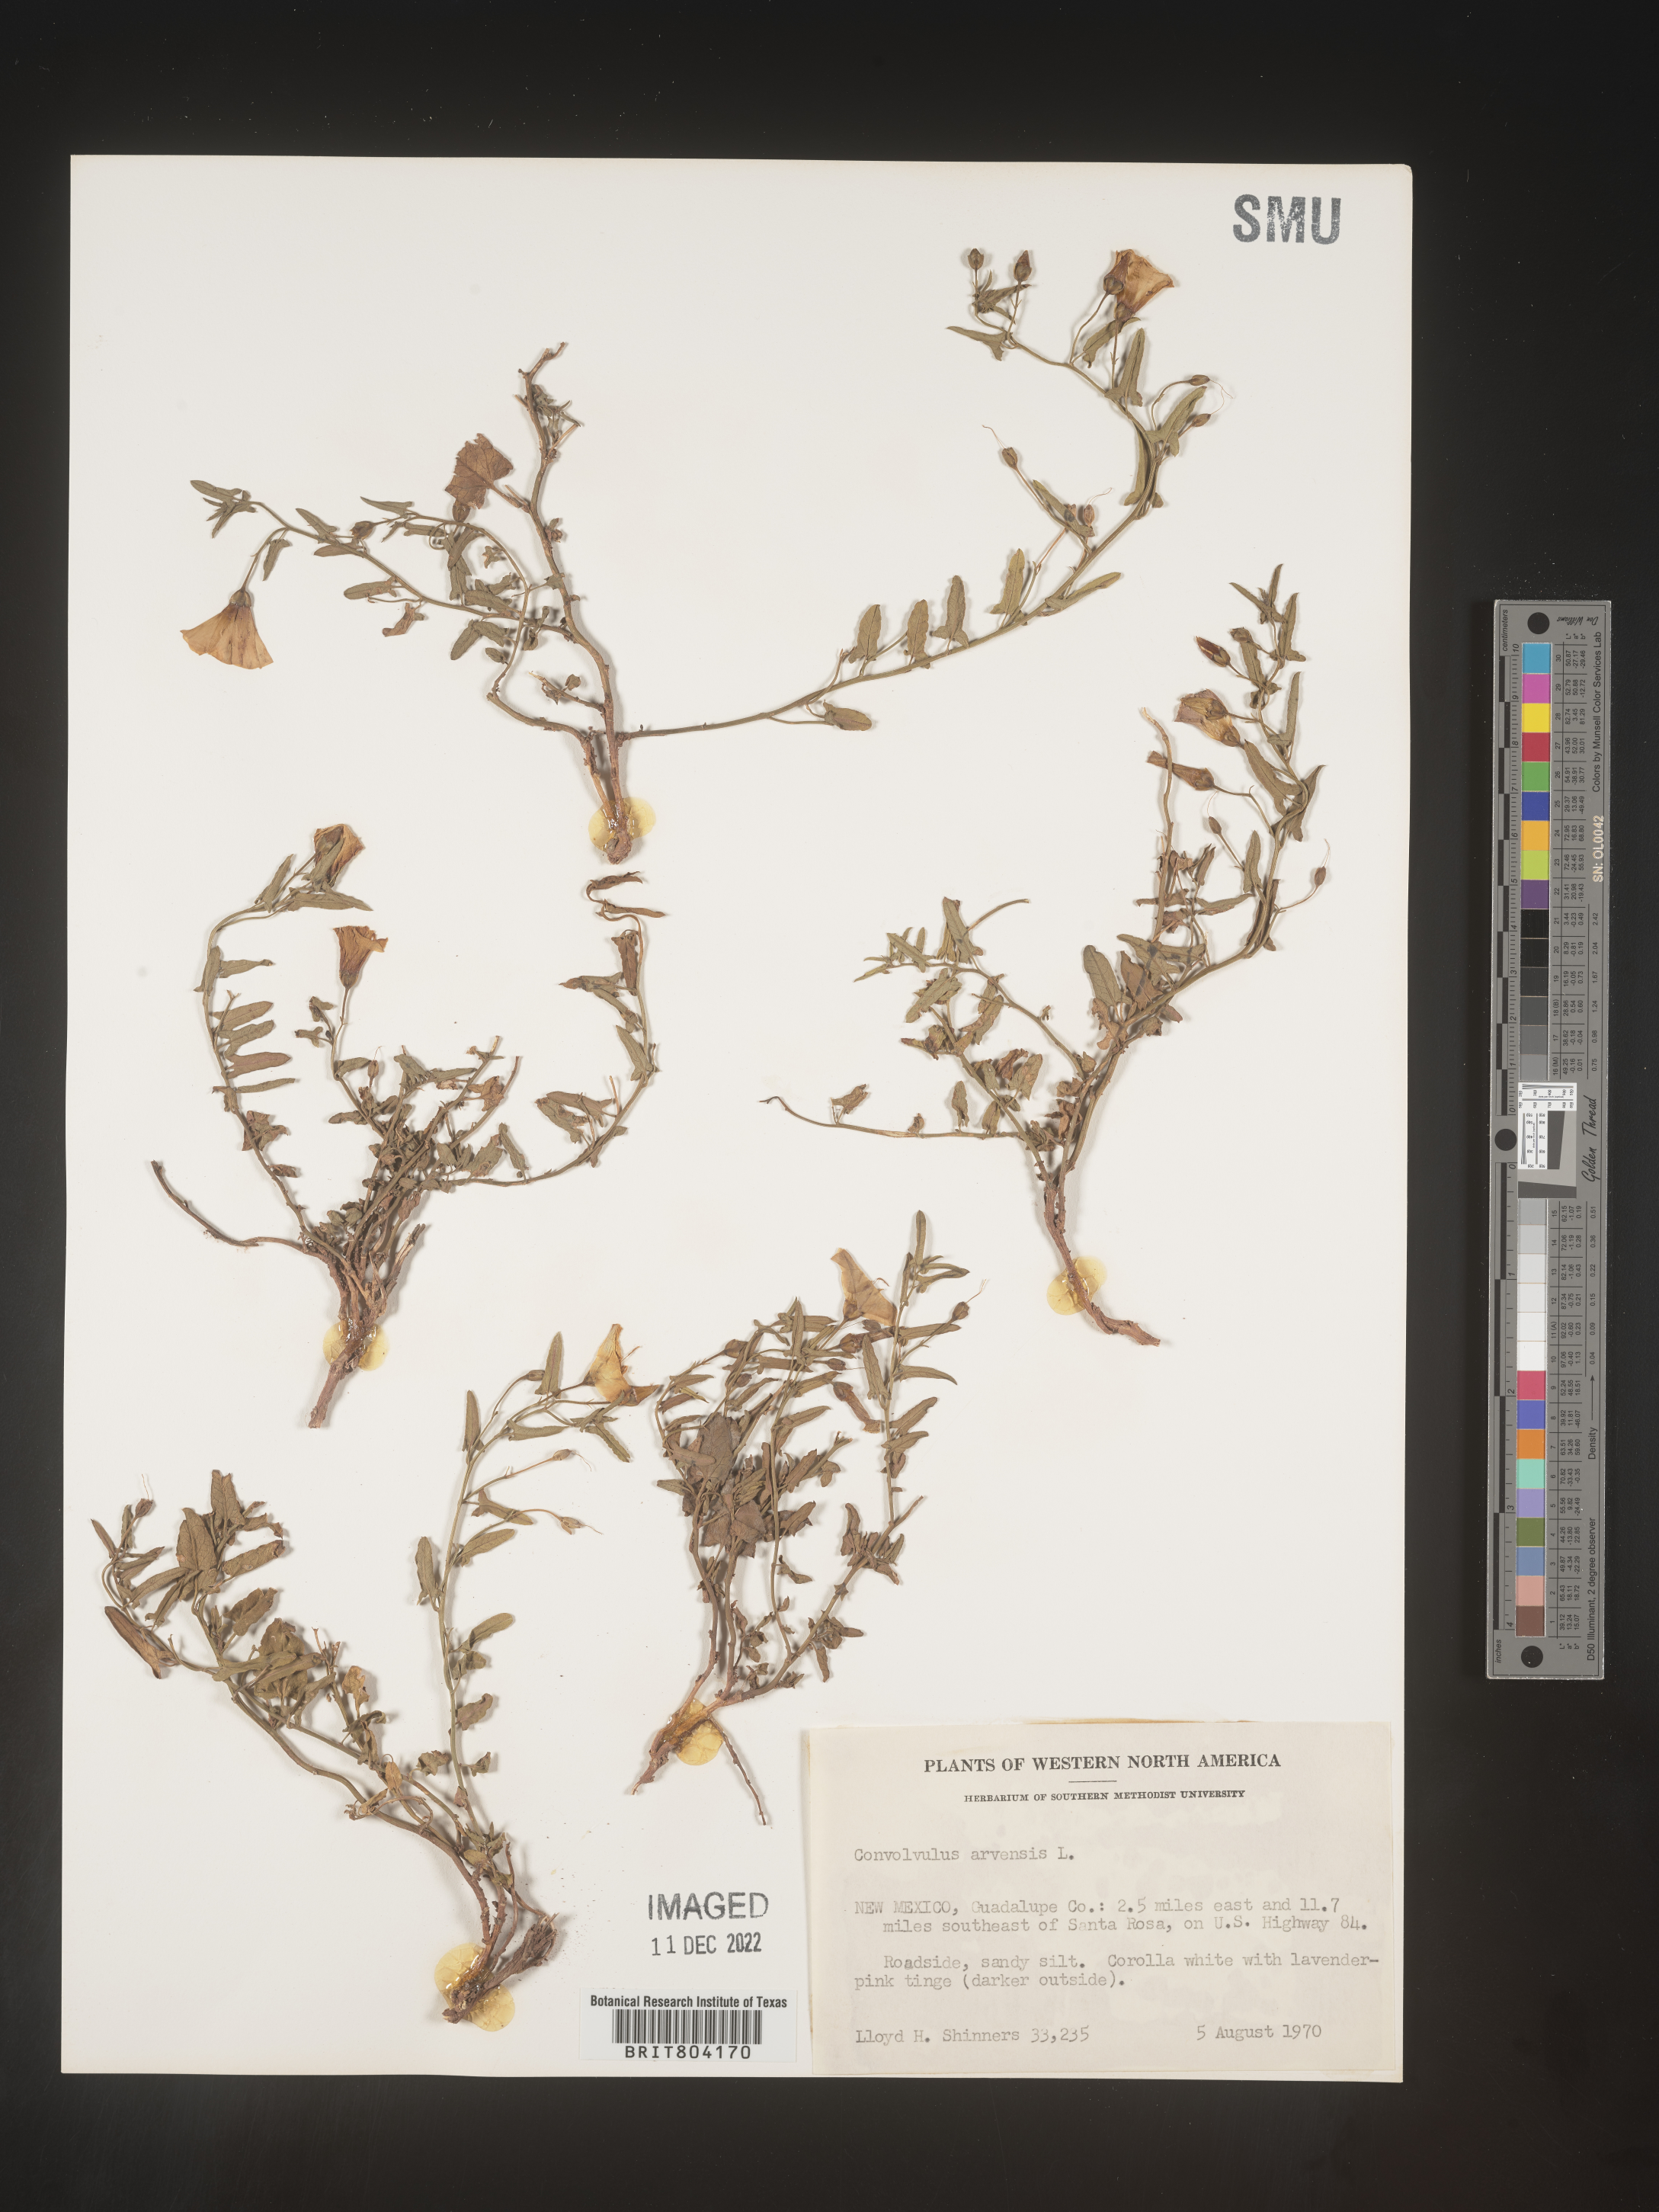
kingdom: Plantae
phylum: Tracheophyta
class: Magnoliopsida
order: Solanales
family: Convolvulaceae
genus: Convolvulus
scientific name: Convolvulus arvensis
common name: Field bindweed
